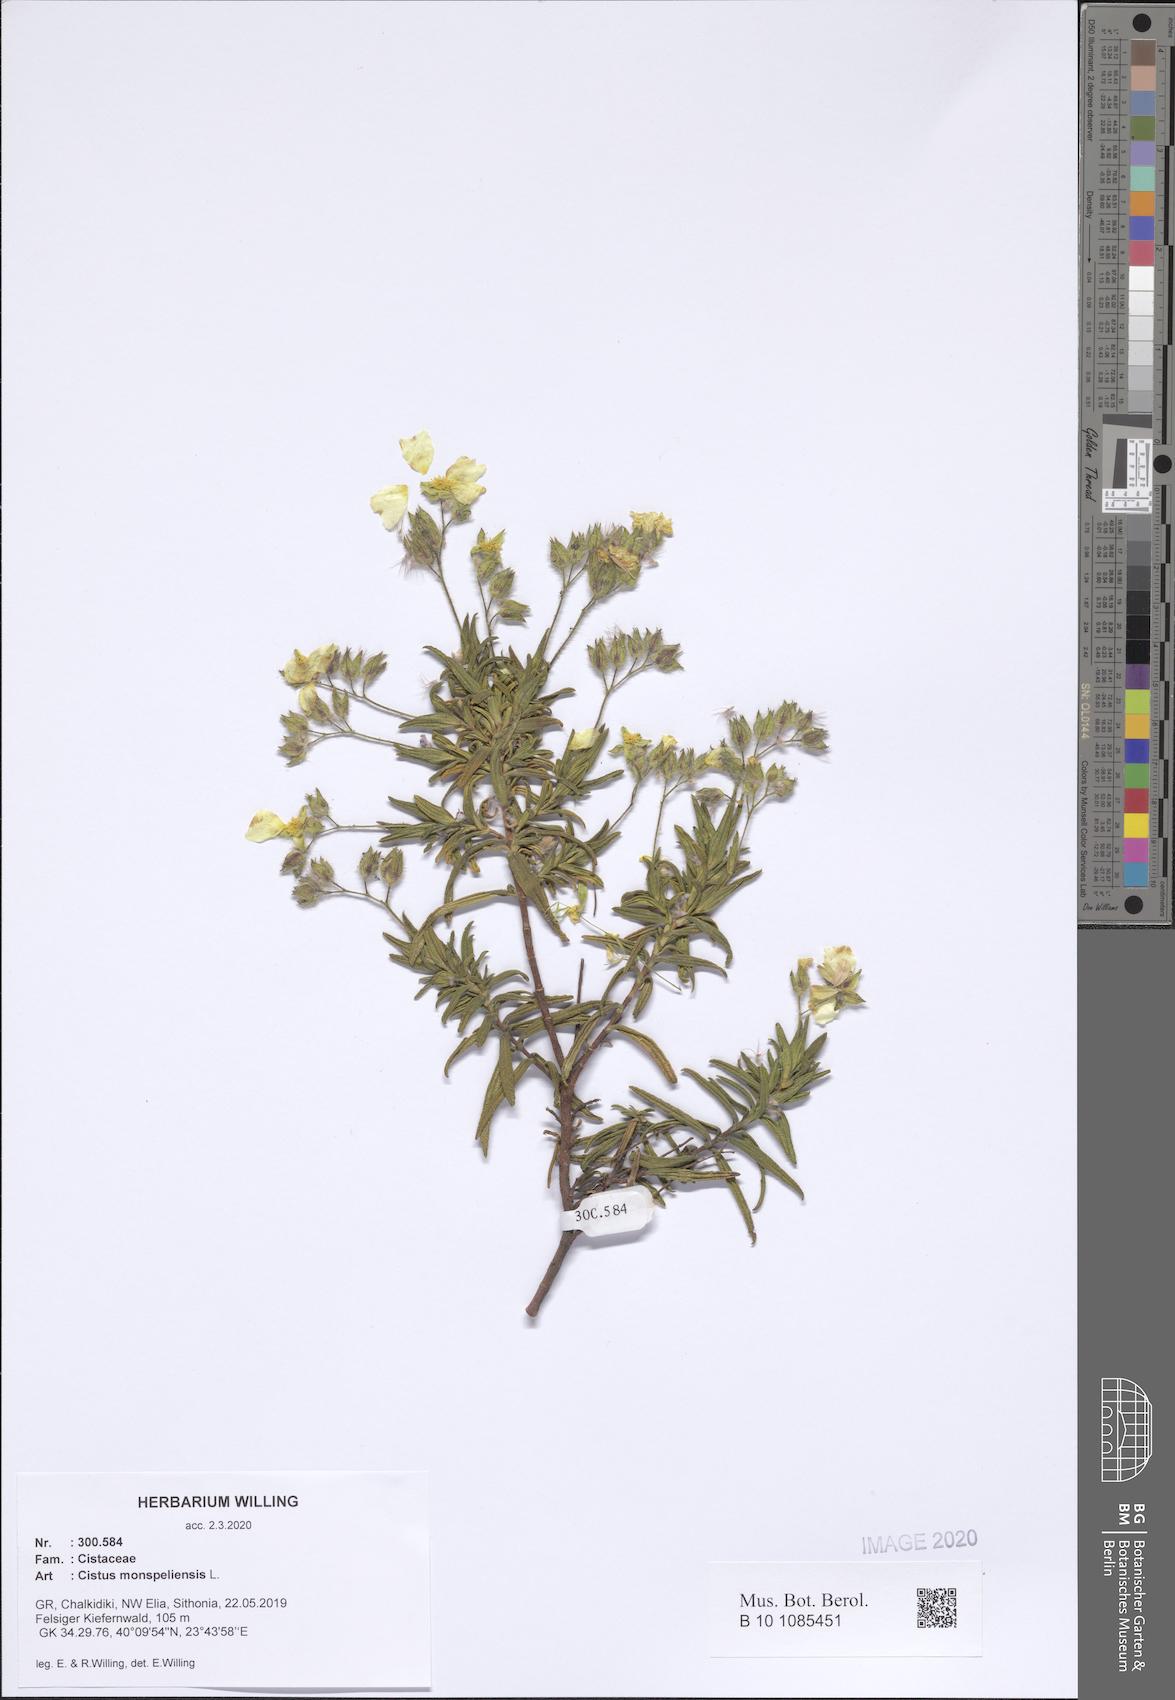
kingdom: Plantae
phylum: Tracheophyta
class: Magnoliopsida
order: Malvales
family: Cistaceae
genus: Cistus
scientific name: Cistus monspeliensis
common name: Montpelier cistus
